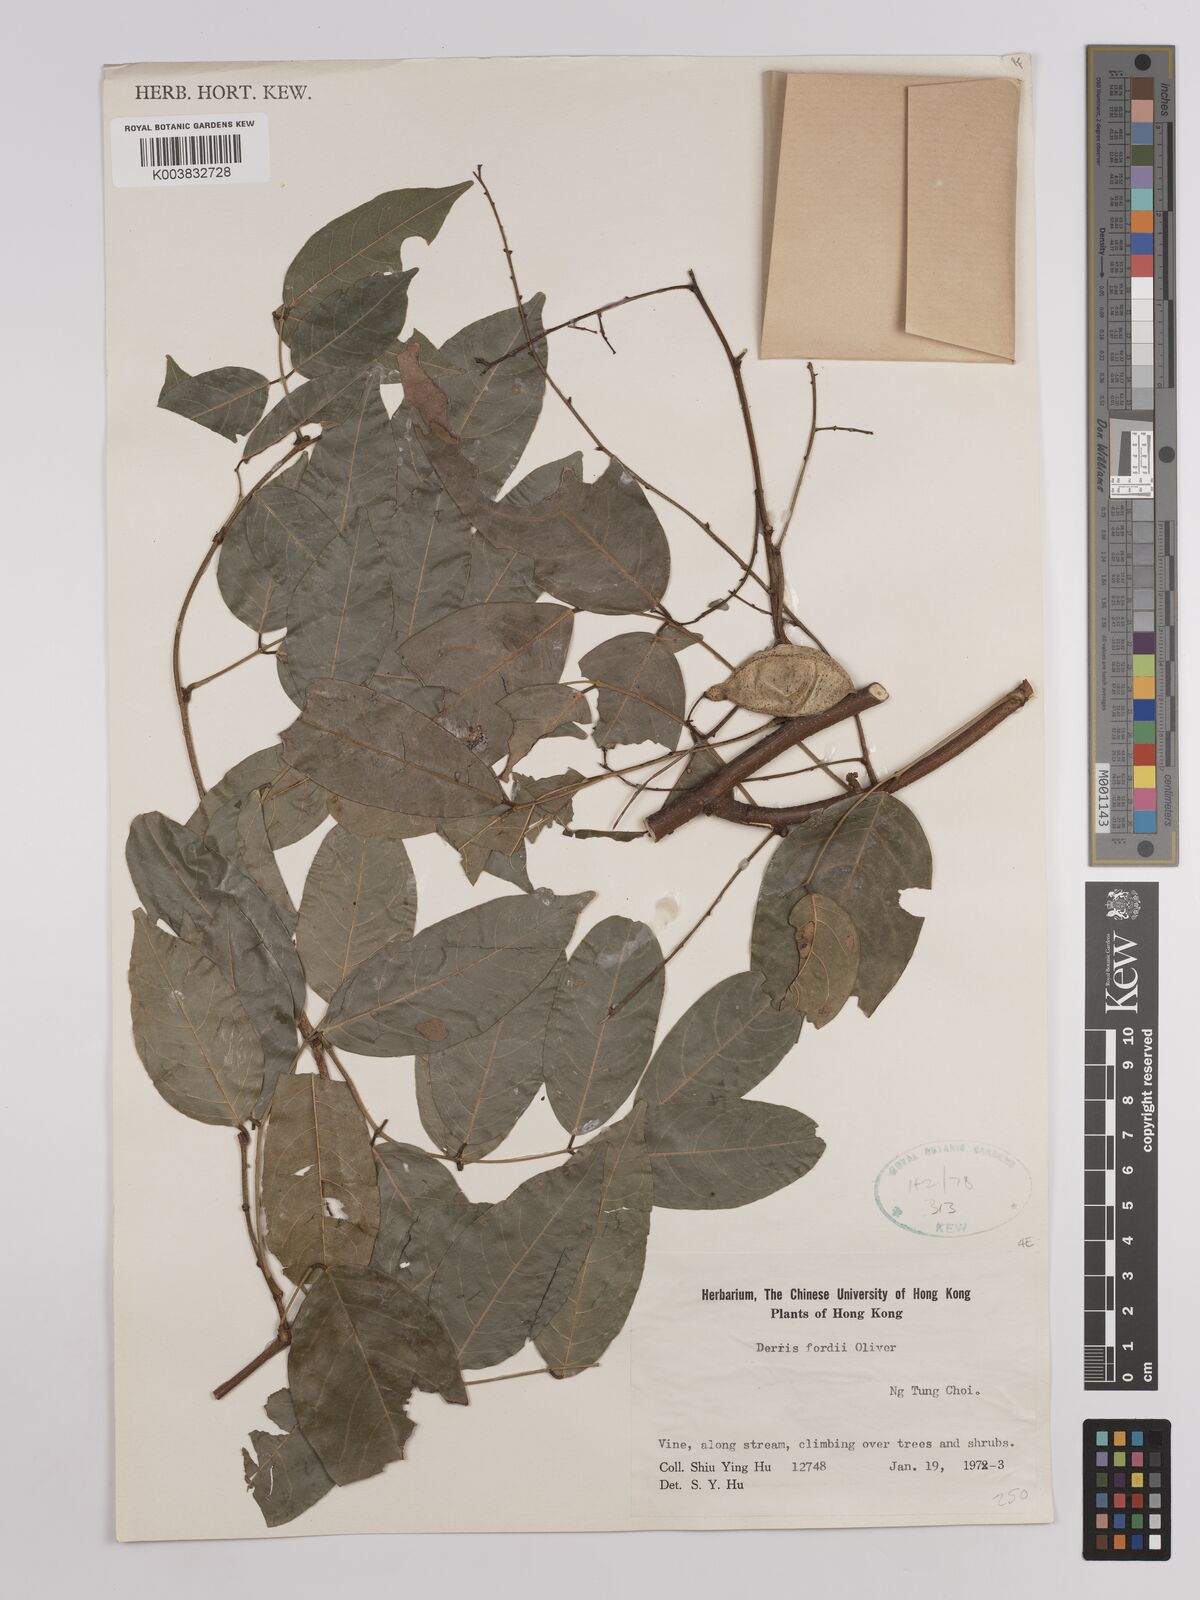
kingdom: Plantae
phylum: Tracheophyta
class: Magnoliopsida
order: Fabales
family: Fabaceae
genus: Derris
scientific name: Derris fordii
